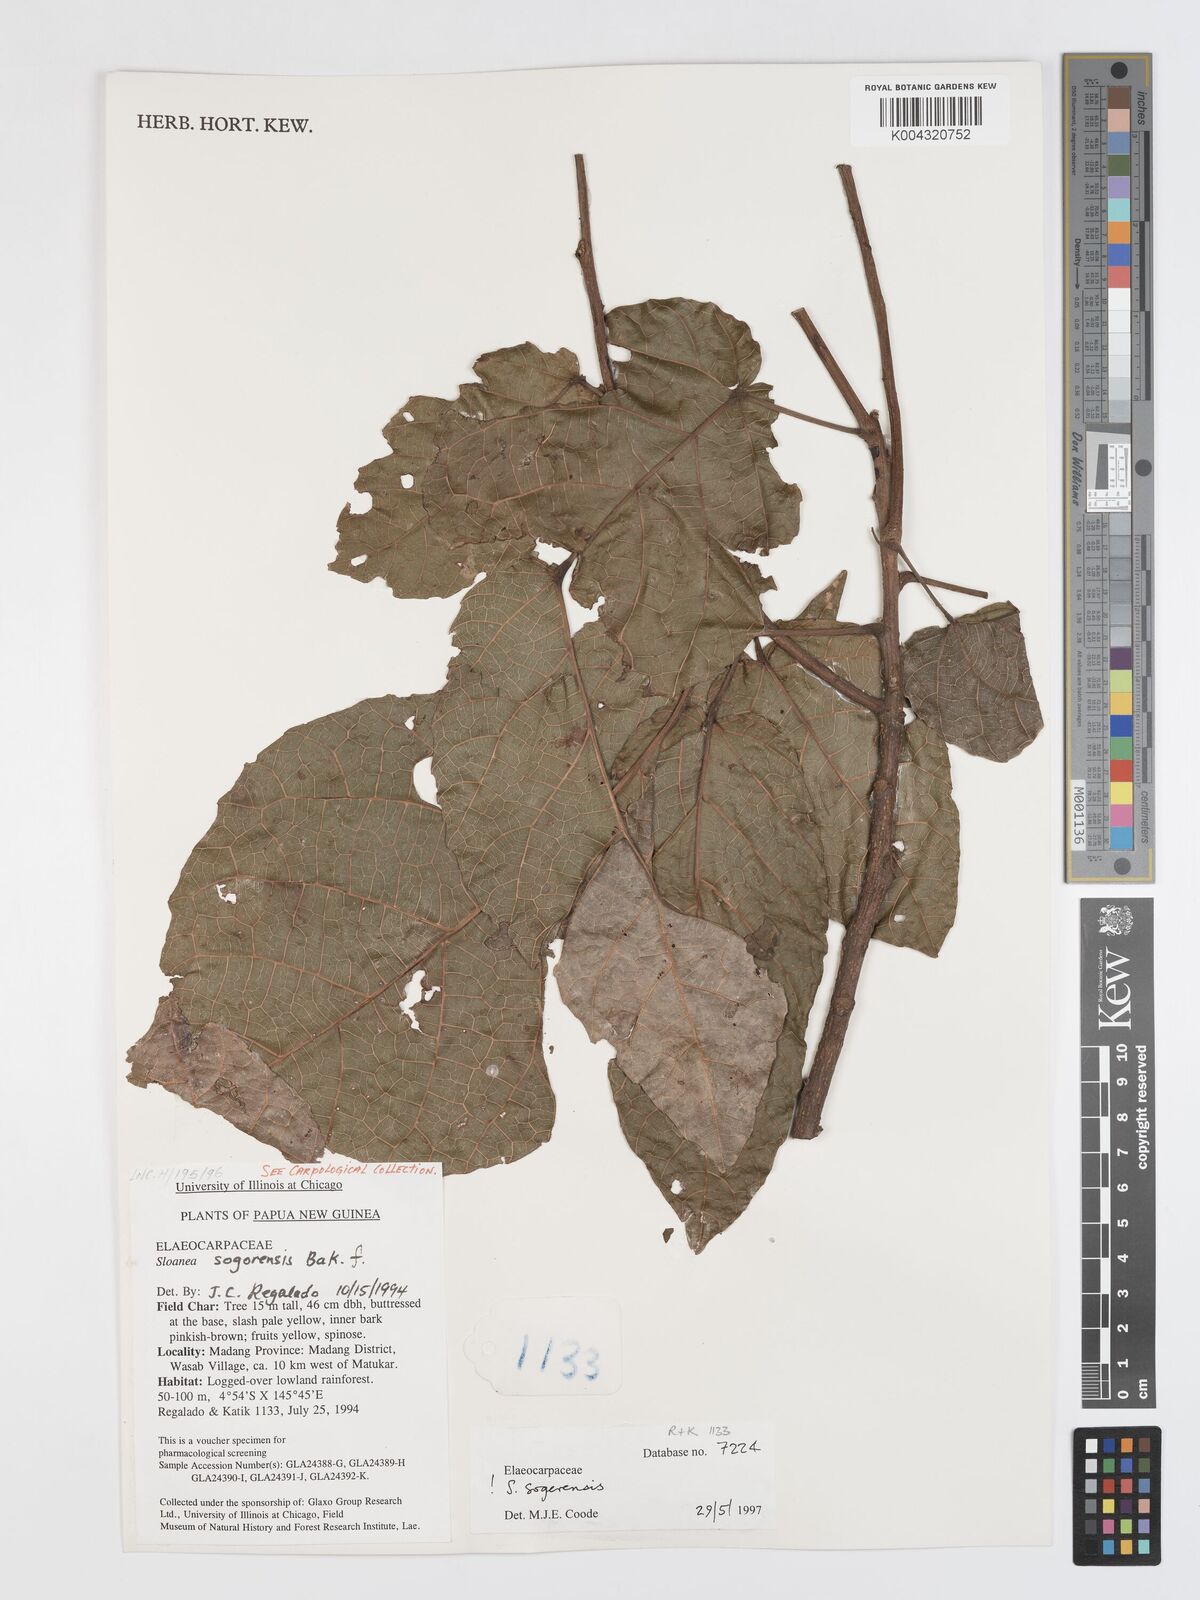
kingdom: Plantae
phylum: Tracheophyta
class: Magnoliopsida
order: Oxalidales
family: Elaeocarpaceae
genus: Sloanea
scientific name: Sloanea sogerensis
